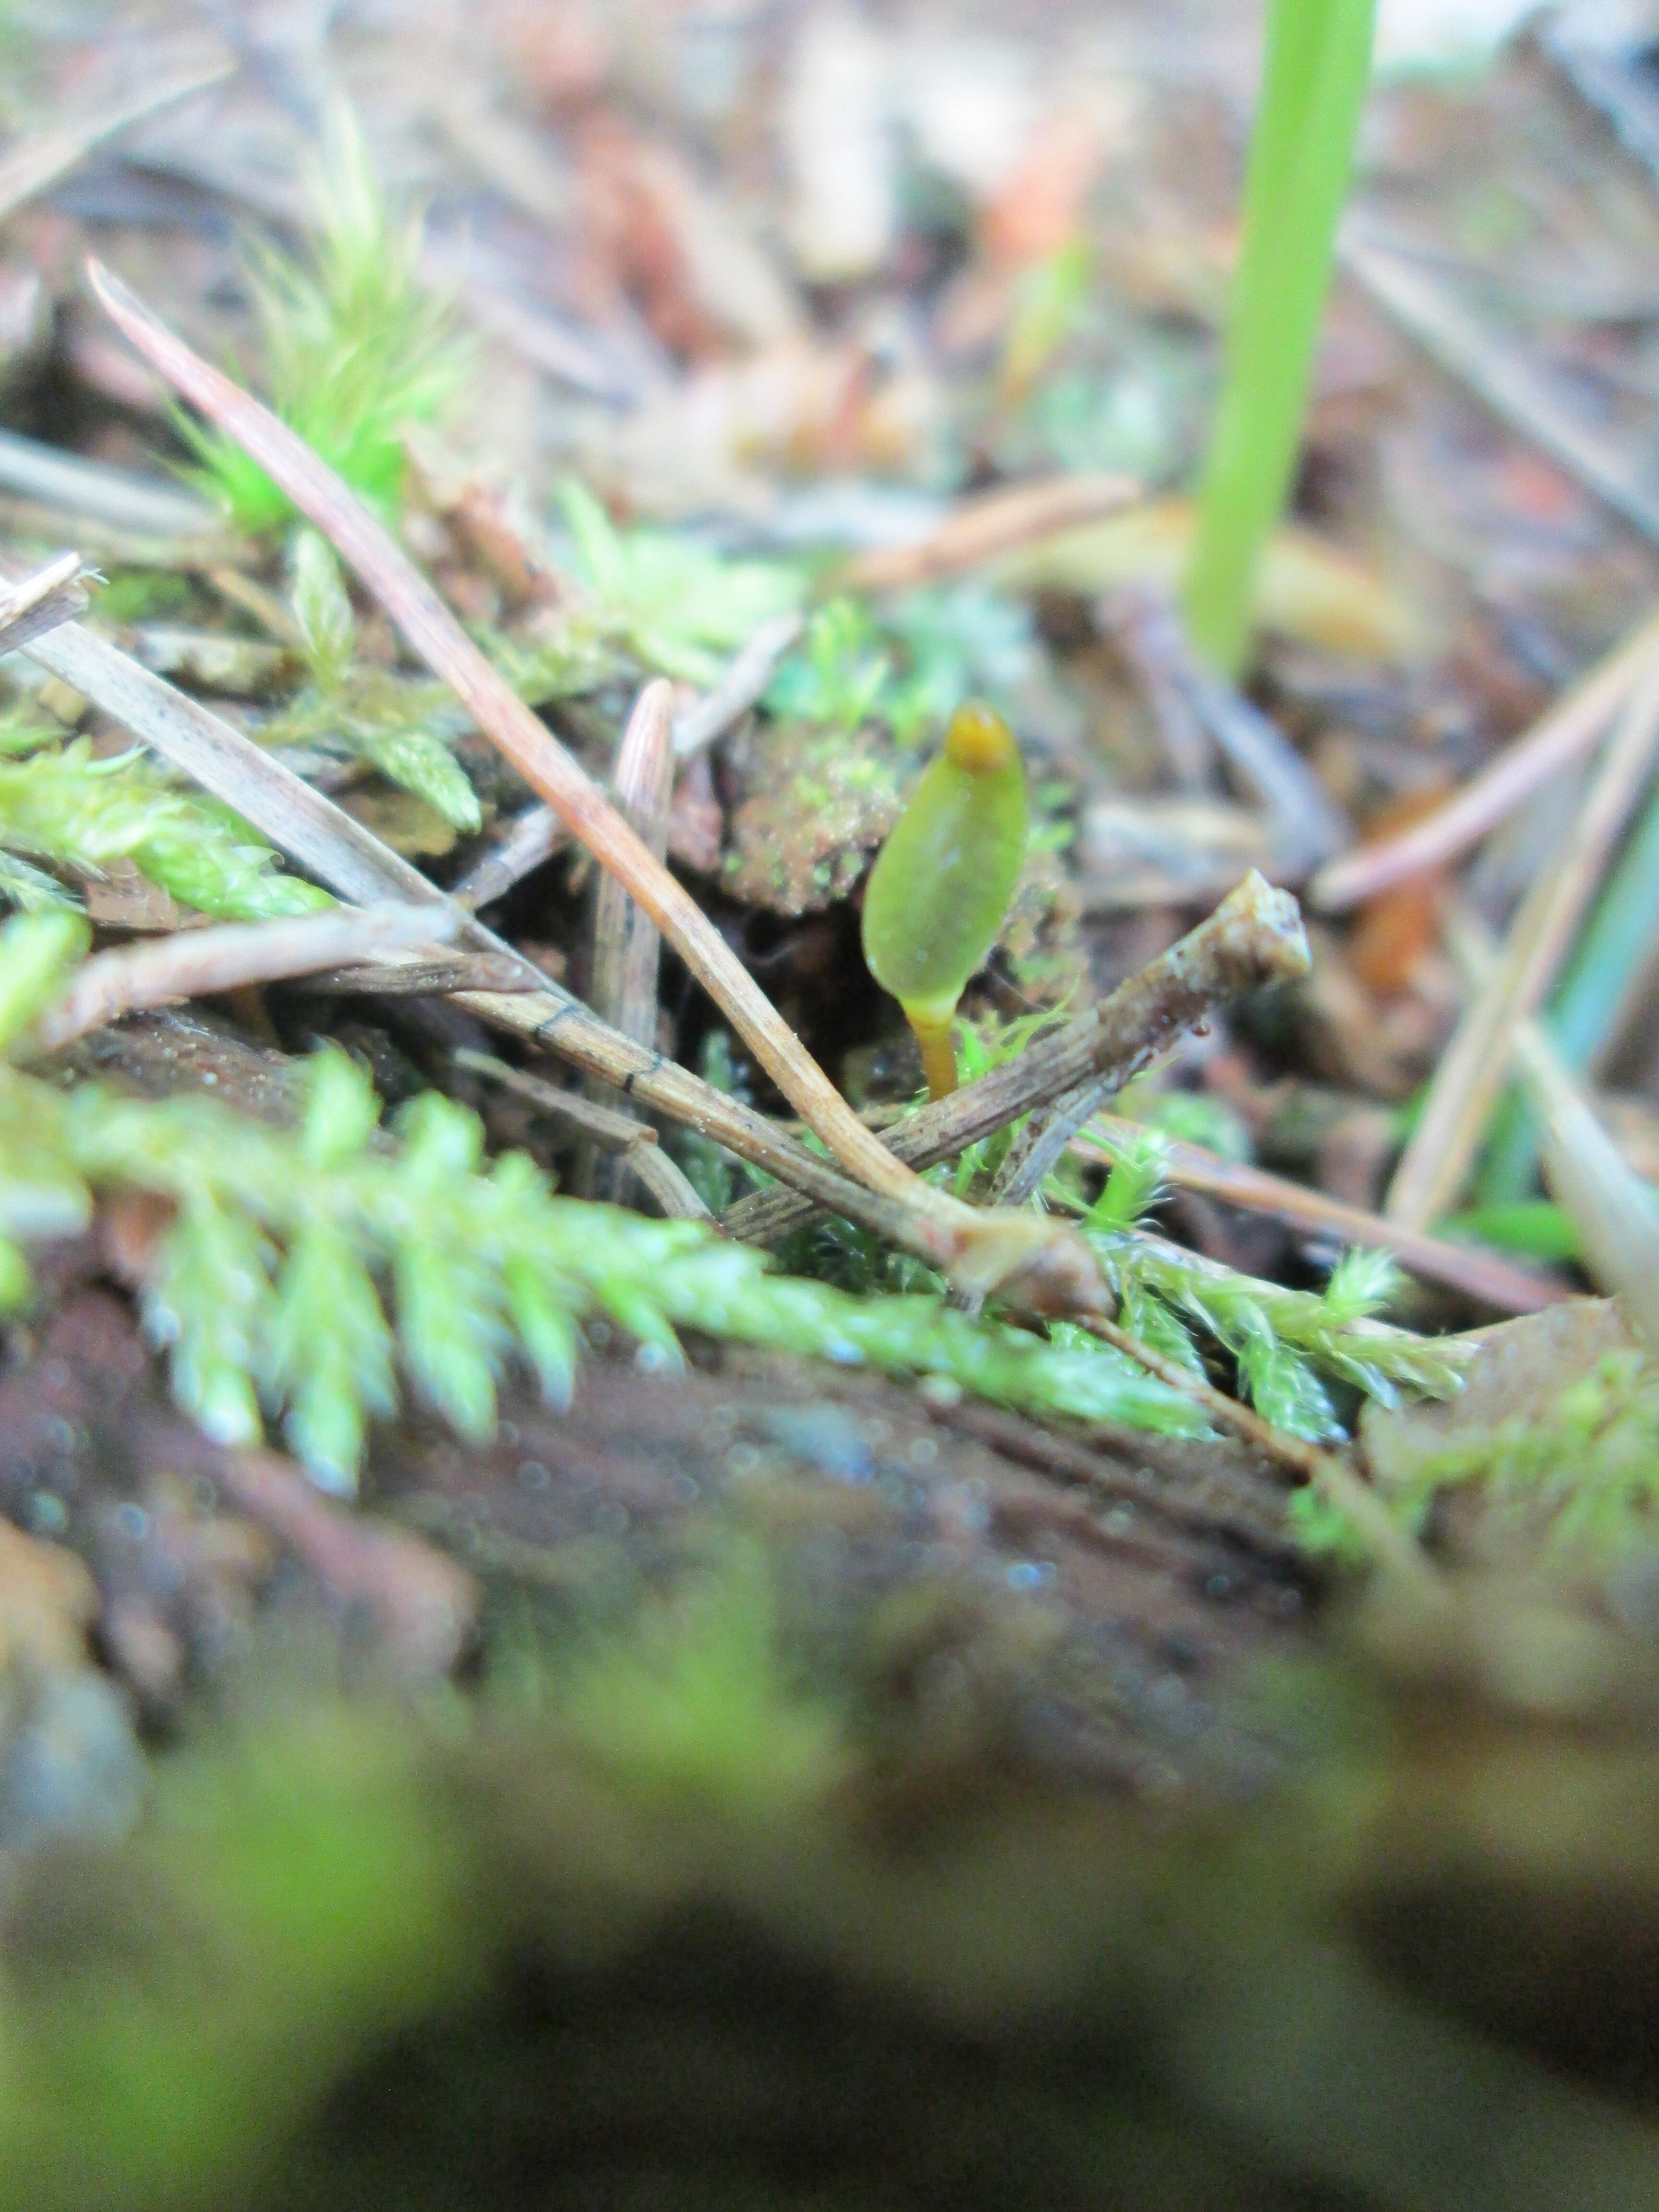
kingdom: Plantae
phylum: Bryophyta
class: Bryopsida
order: Buxbaumiales
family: Buxbaumiaceae
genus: Buxbaumia
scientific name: Buxbaumia viridis
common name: Green shield-moss
